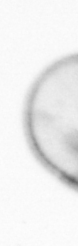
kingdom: Chromista
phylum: Myzozoa
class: Dinophyceae
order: Noctilucales
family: Noctilucaceae
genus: Noctiluca
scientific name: Noctiluca scintillans
